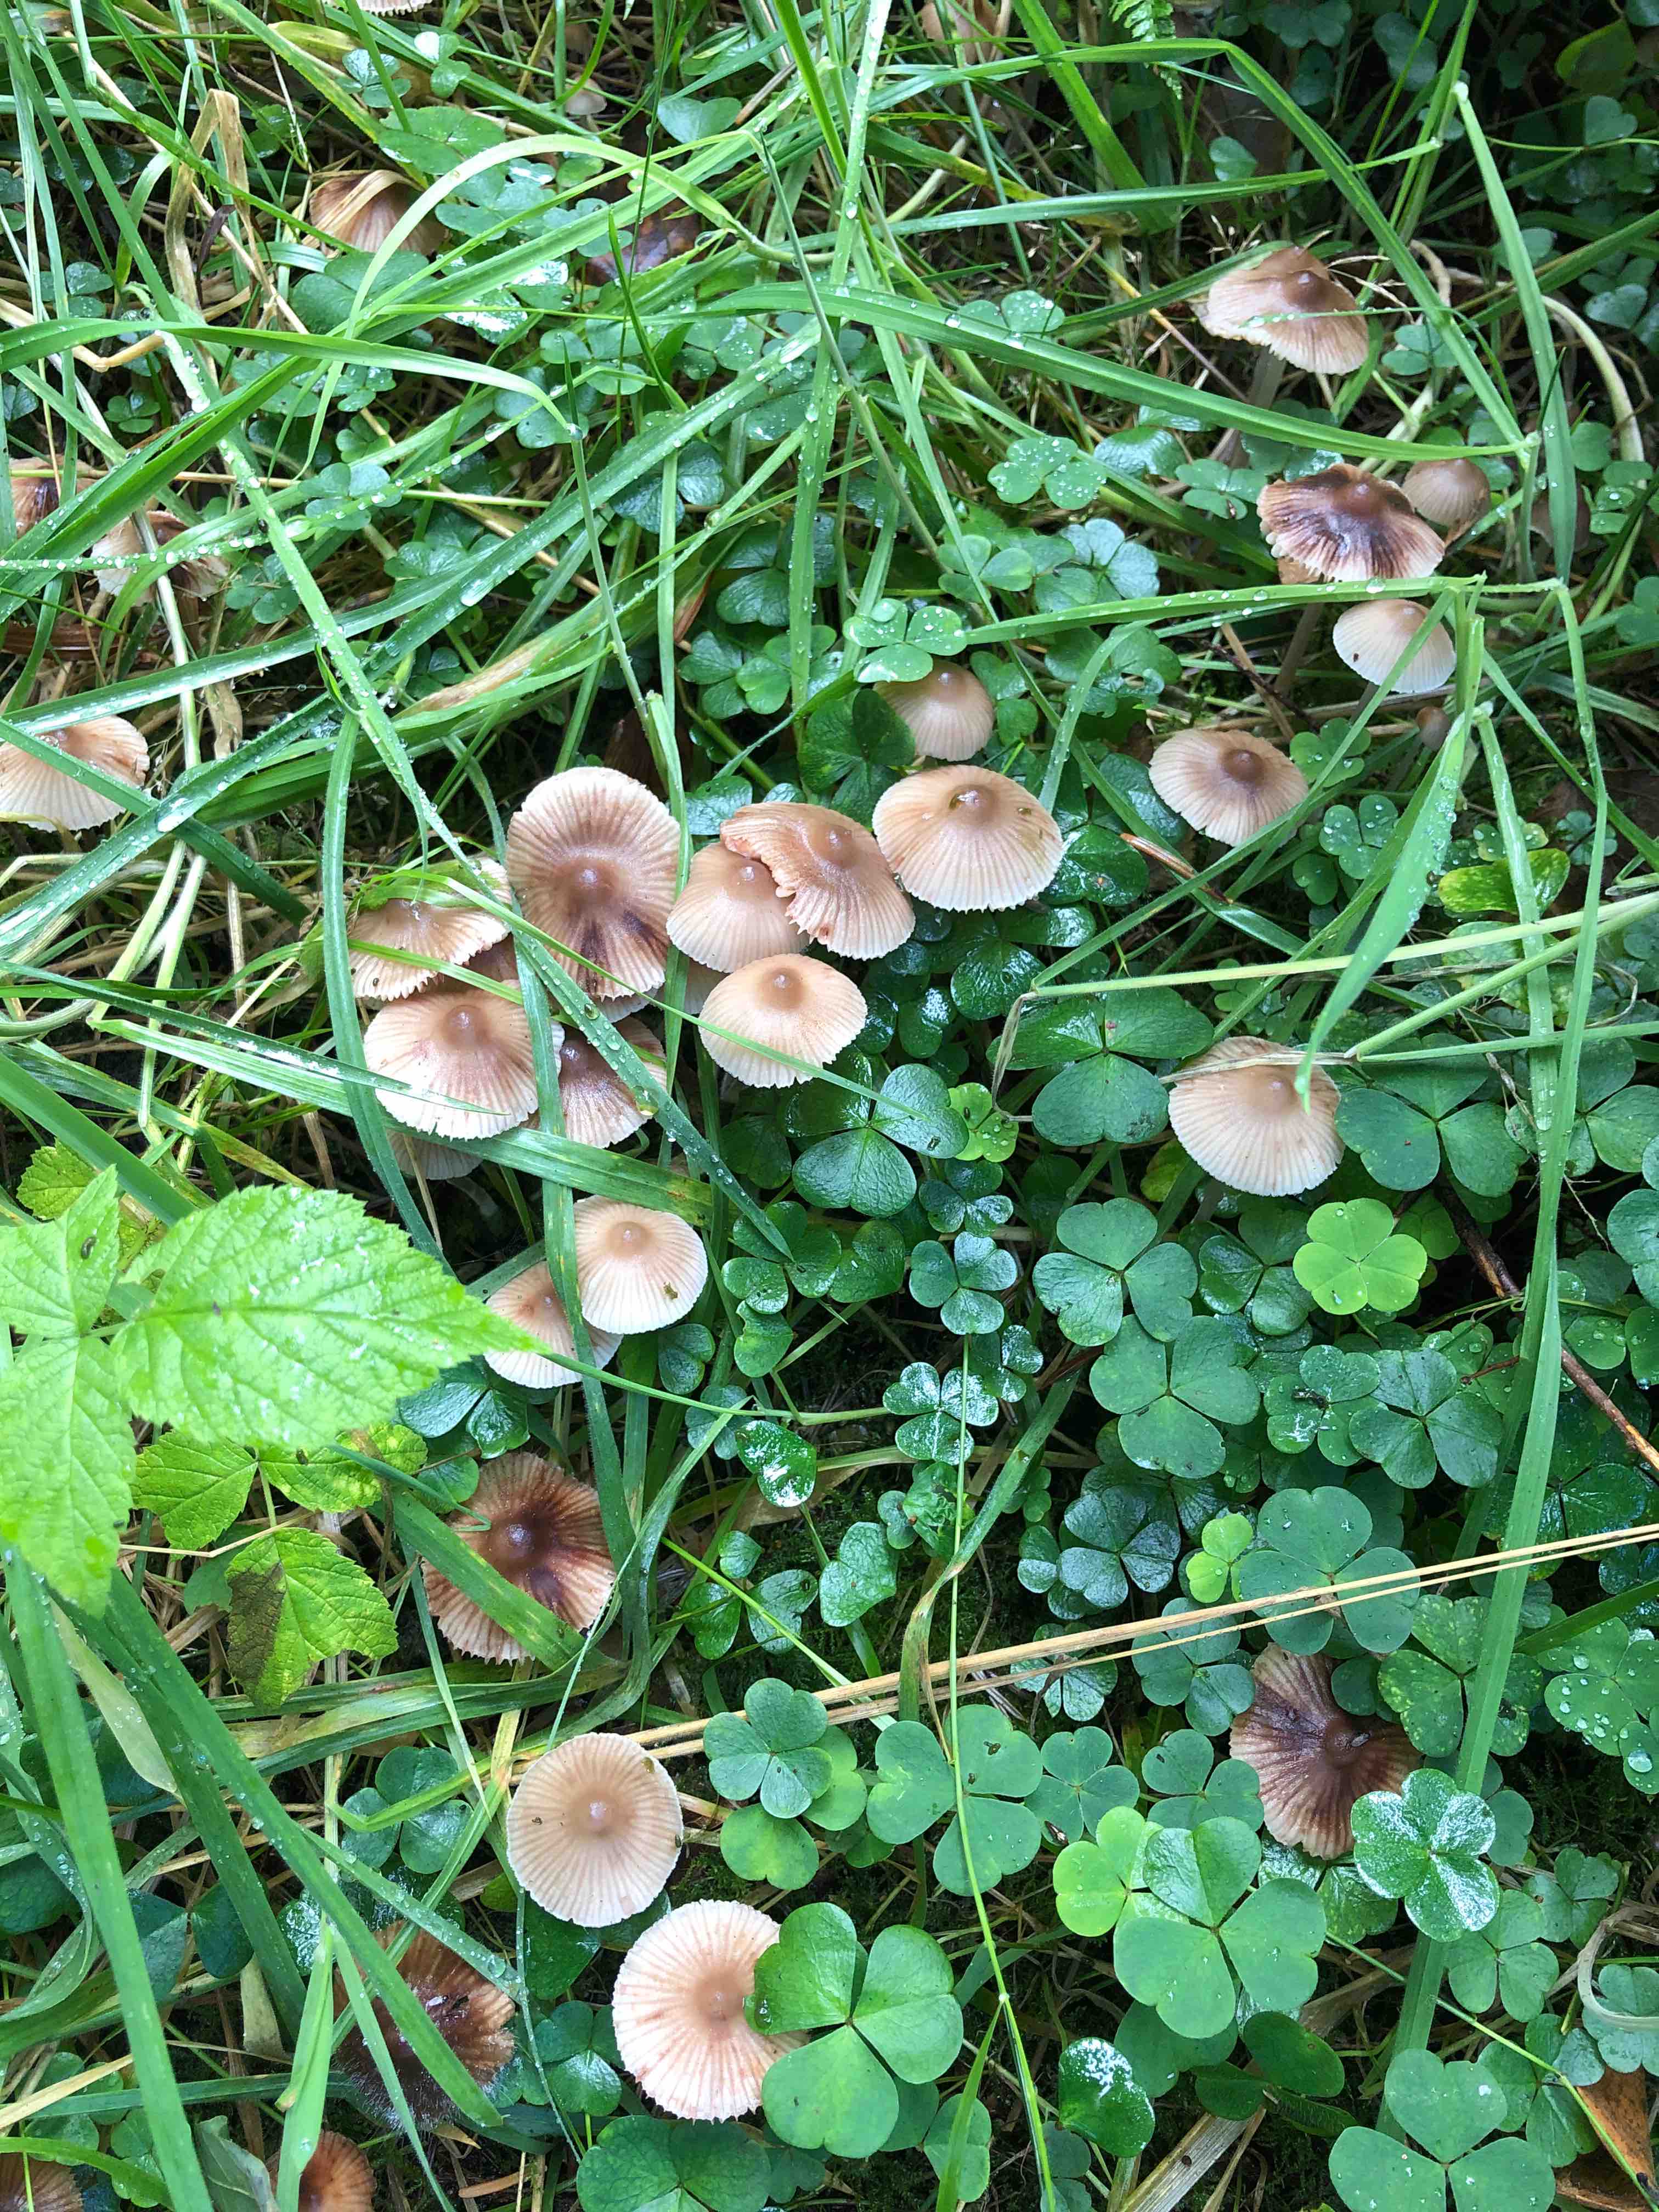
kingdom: Fungi
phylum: Basidiomycota
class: Agaricomycetes
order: Agaricales
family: Mycenaceae
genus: Mycena
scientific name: Mycena zephirus
